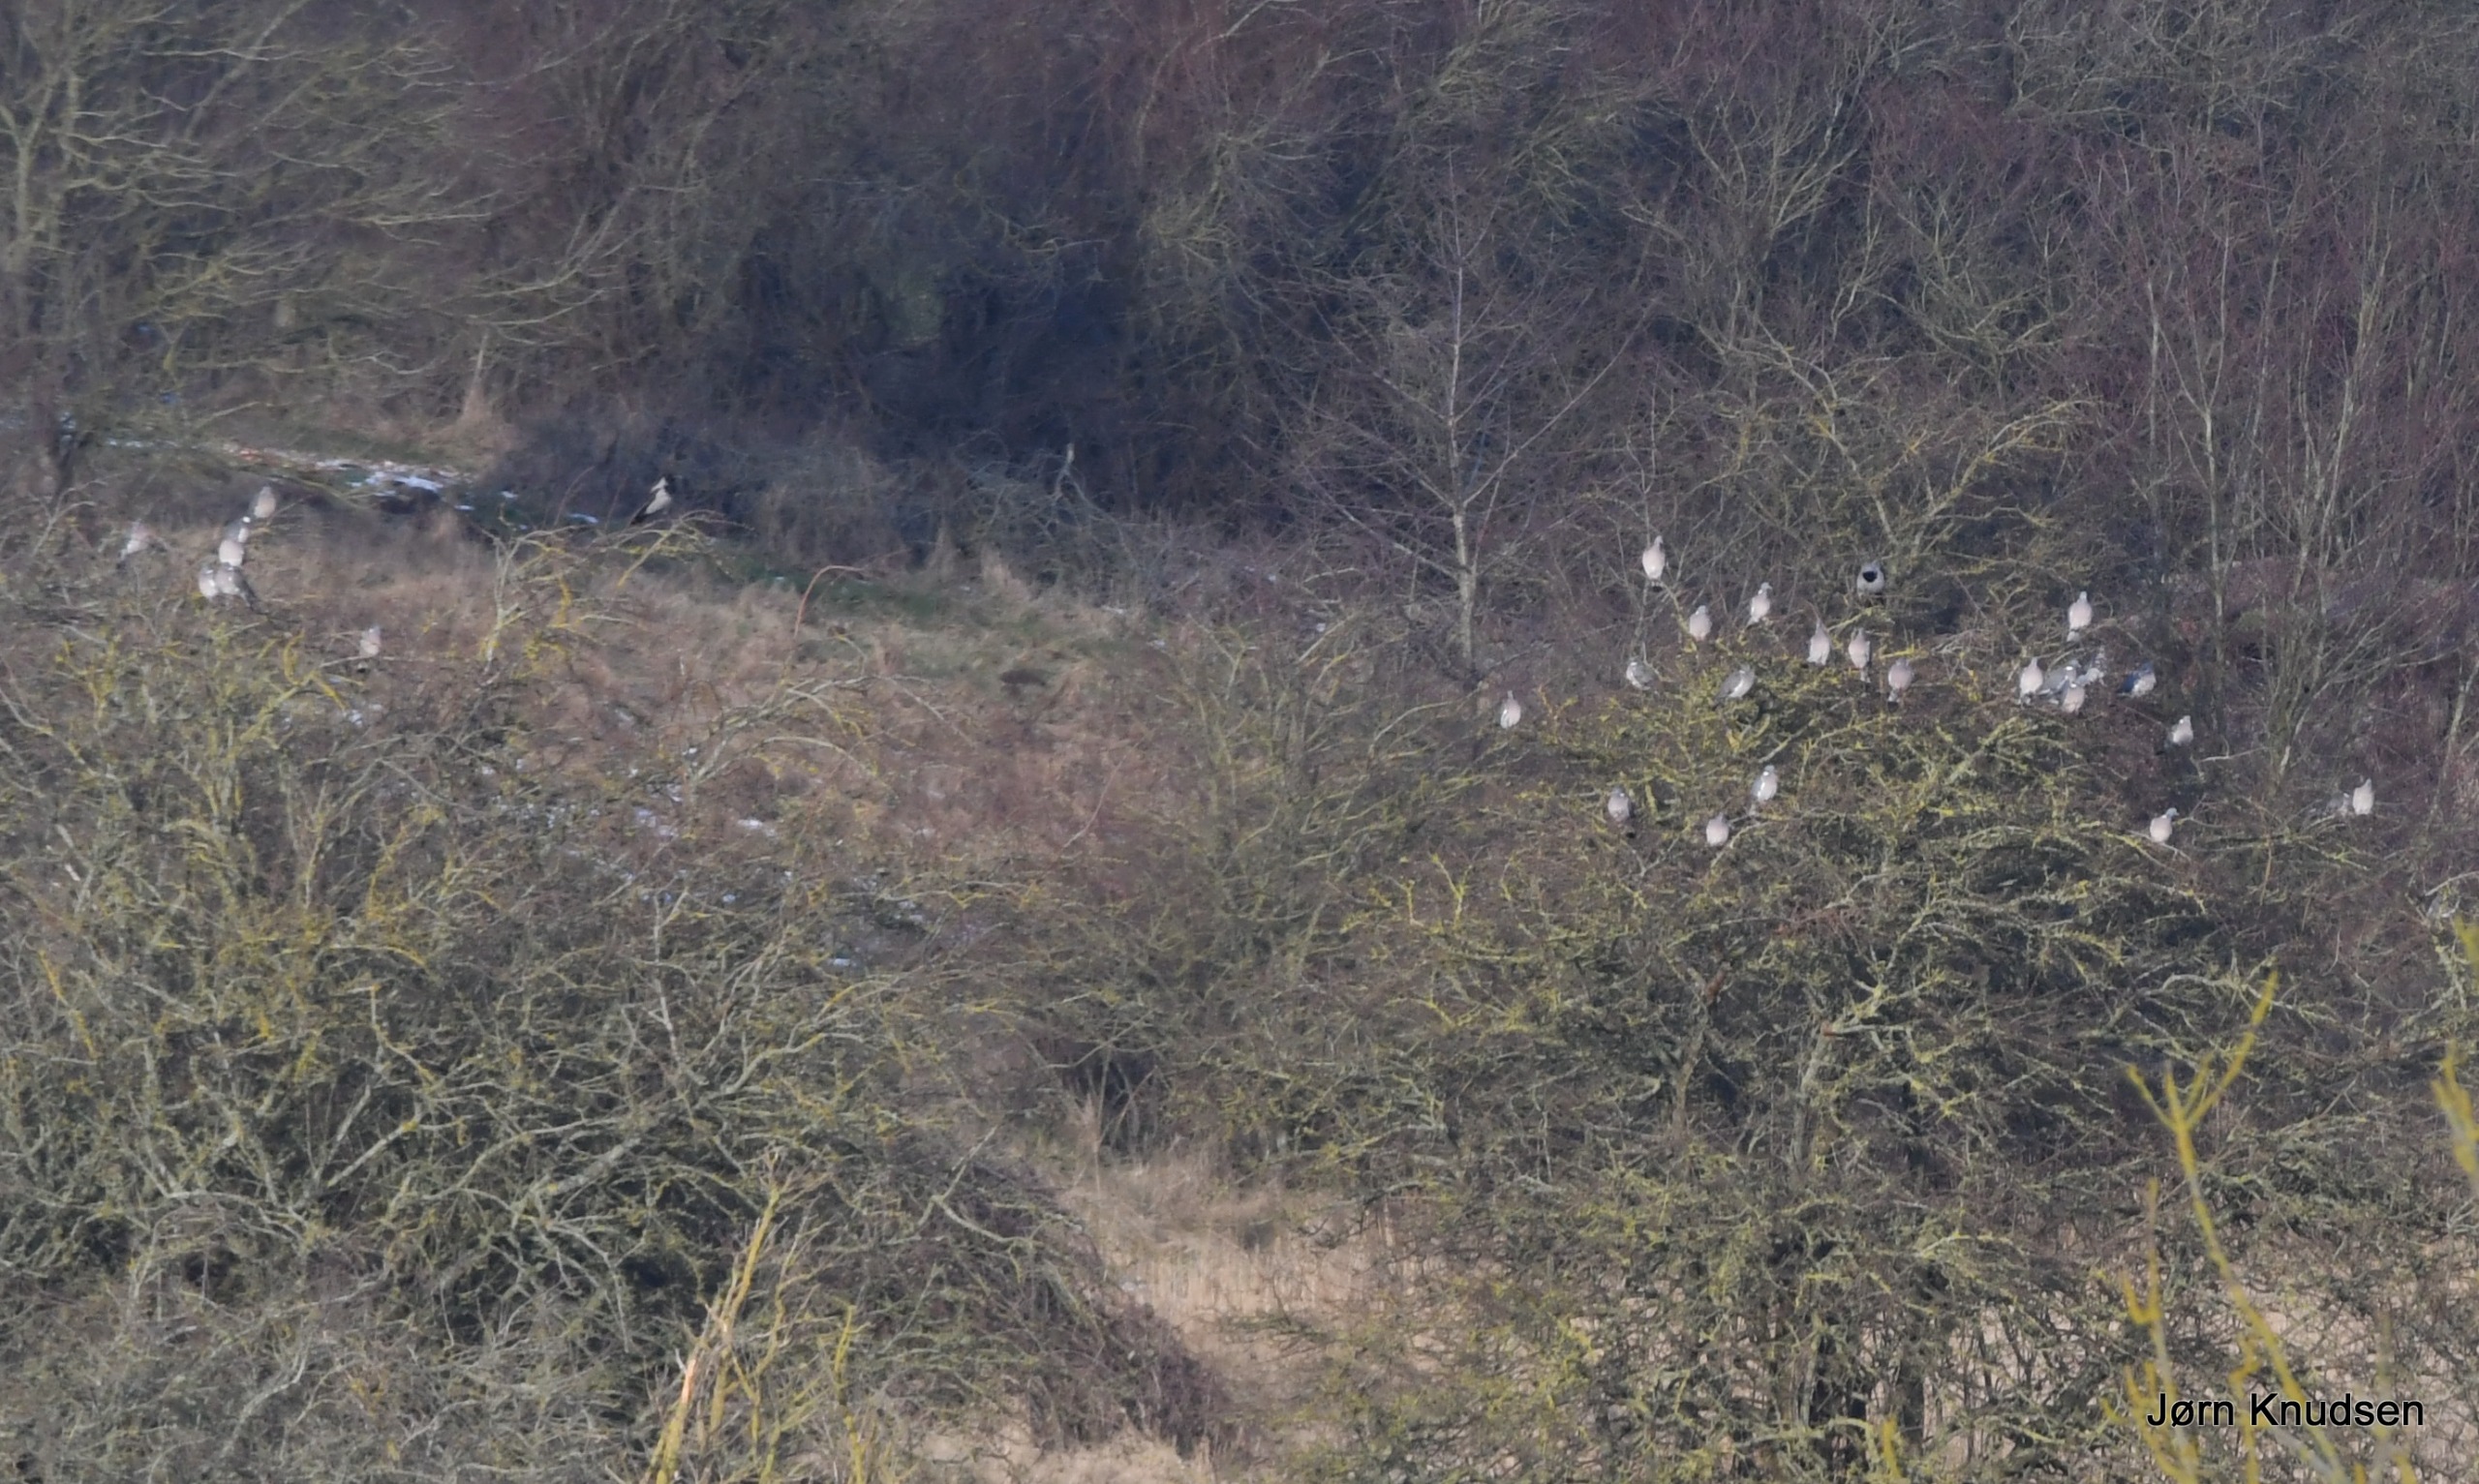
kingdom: Animalia
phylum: Chordata
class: Aves
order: Columbiformes
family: Columbidae
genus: Columba
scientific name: Columba palumbus
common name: Ringdue
